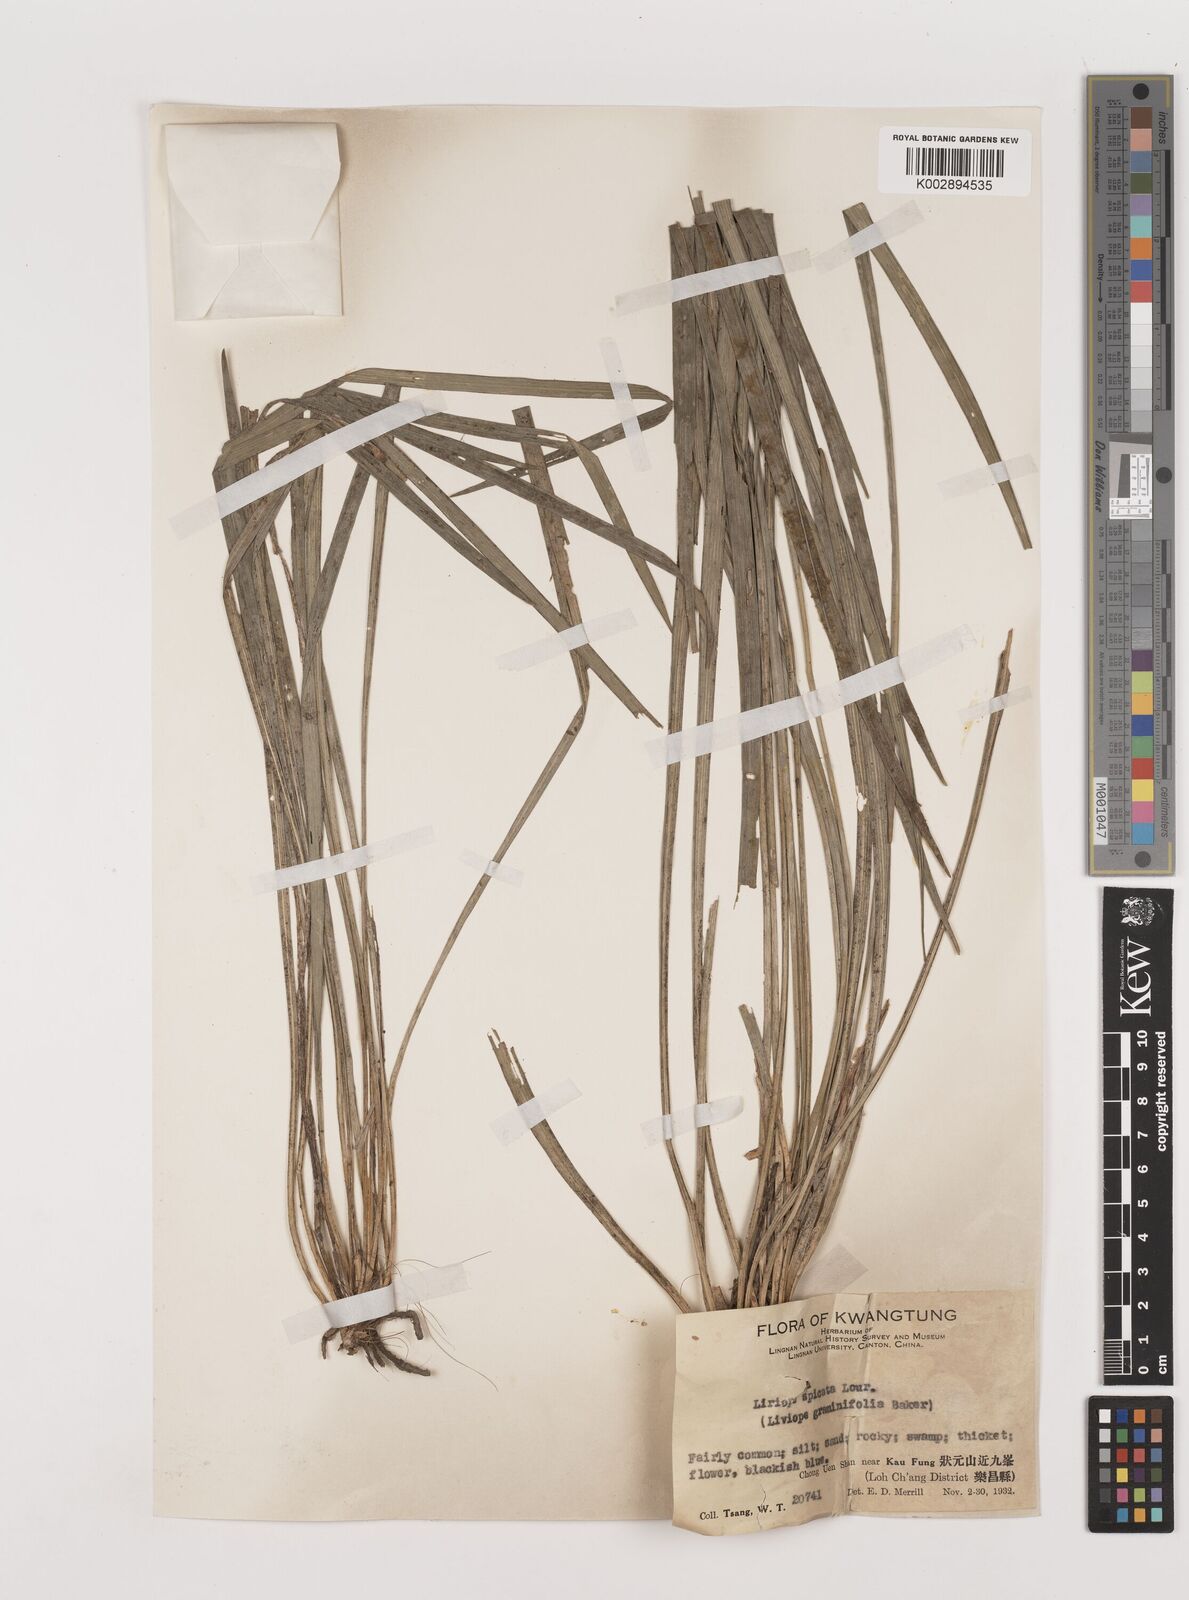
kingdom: Plantae
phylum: Tracheophyta
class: Liliopsida
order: Asparagales
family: Asparagaceae
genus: Liriope
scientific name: Liriope spicata
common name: Creeping liriope
